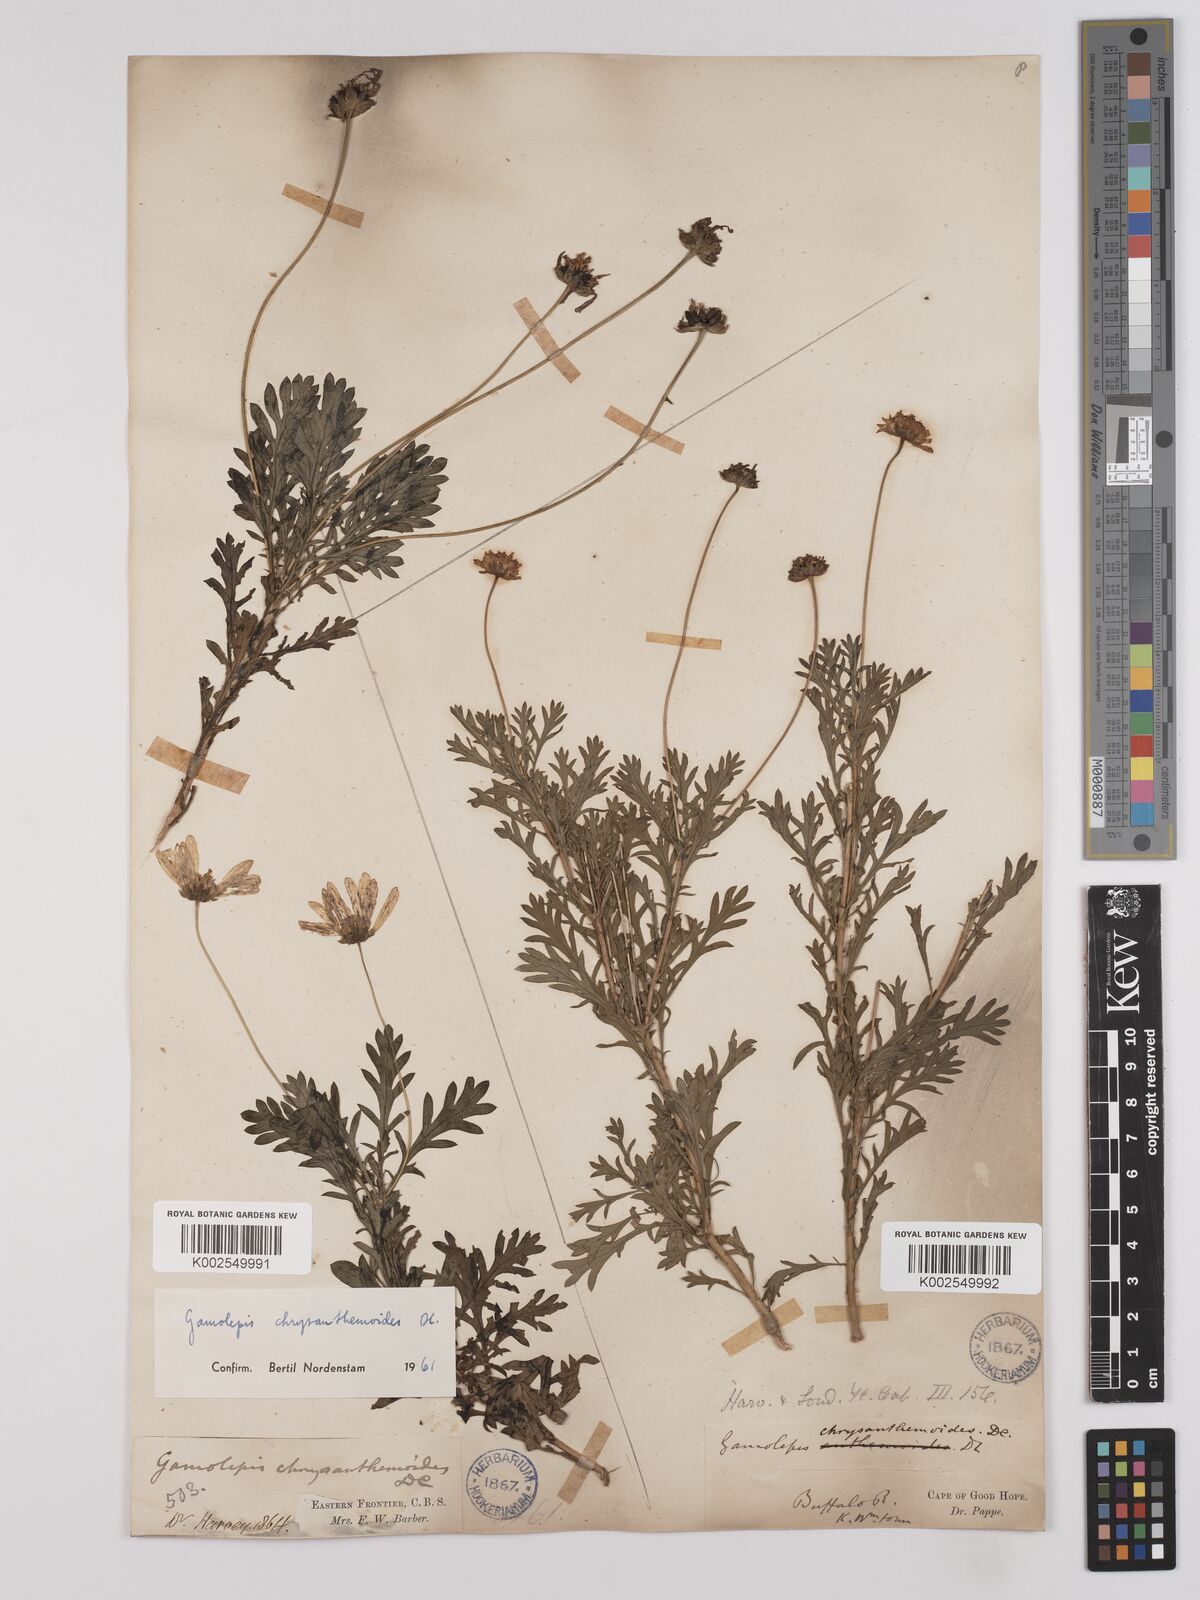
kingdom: Plantae
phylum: Tracheophyta
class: Magnoliopsida
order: Asterales
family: Asteraceae
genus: Euryops
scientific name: Euryops chrysanthemoides
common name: Bull's eye
